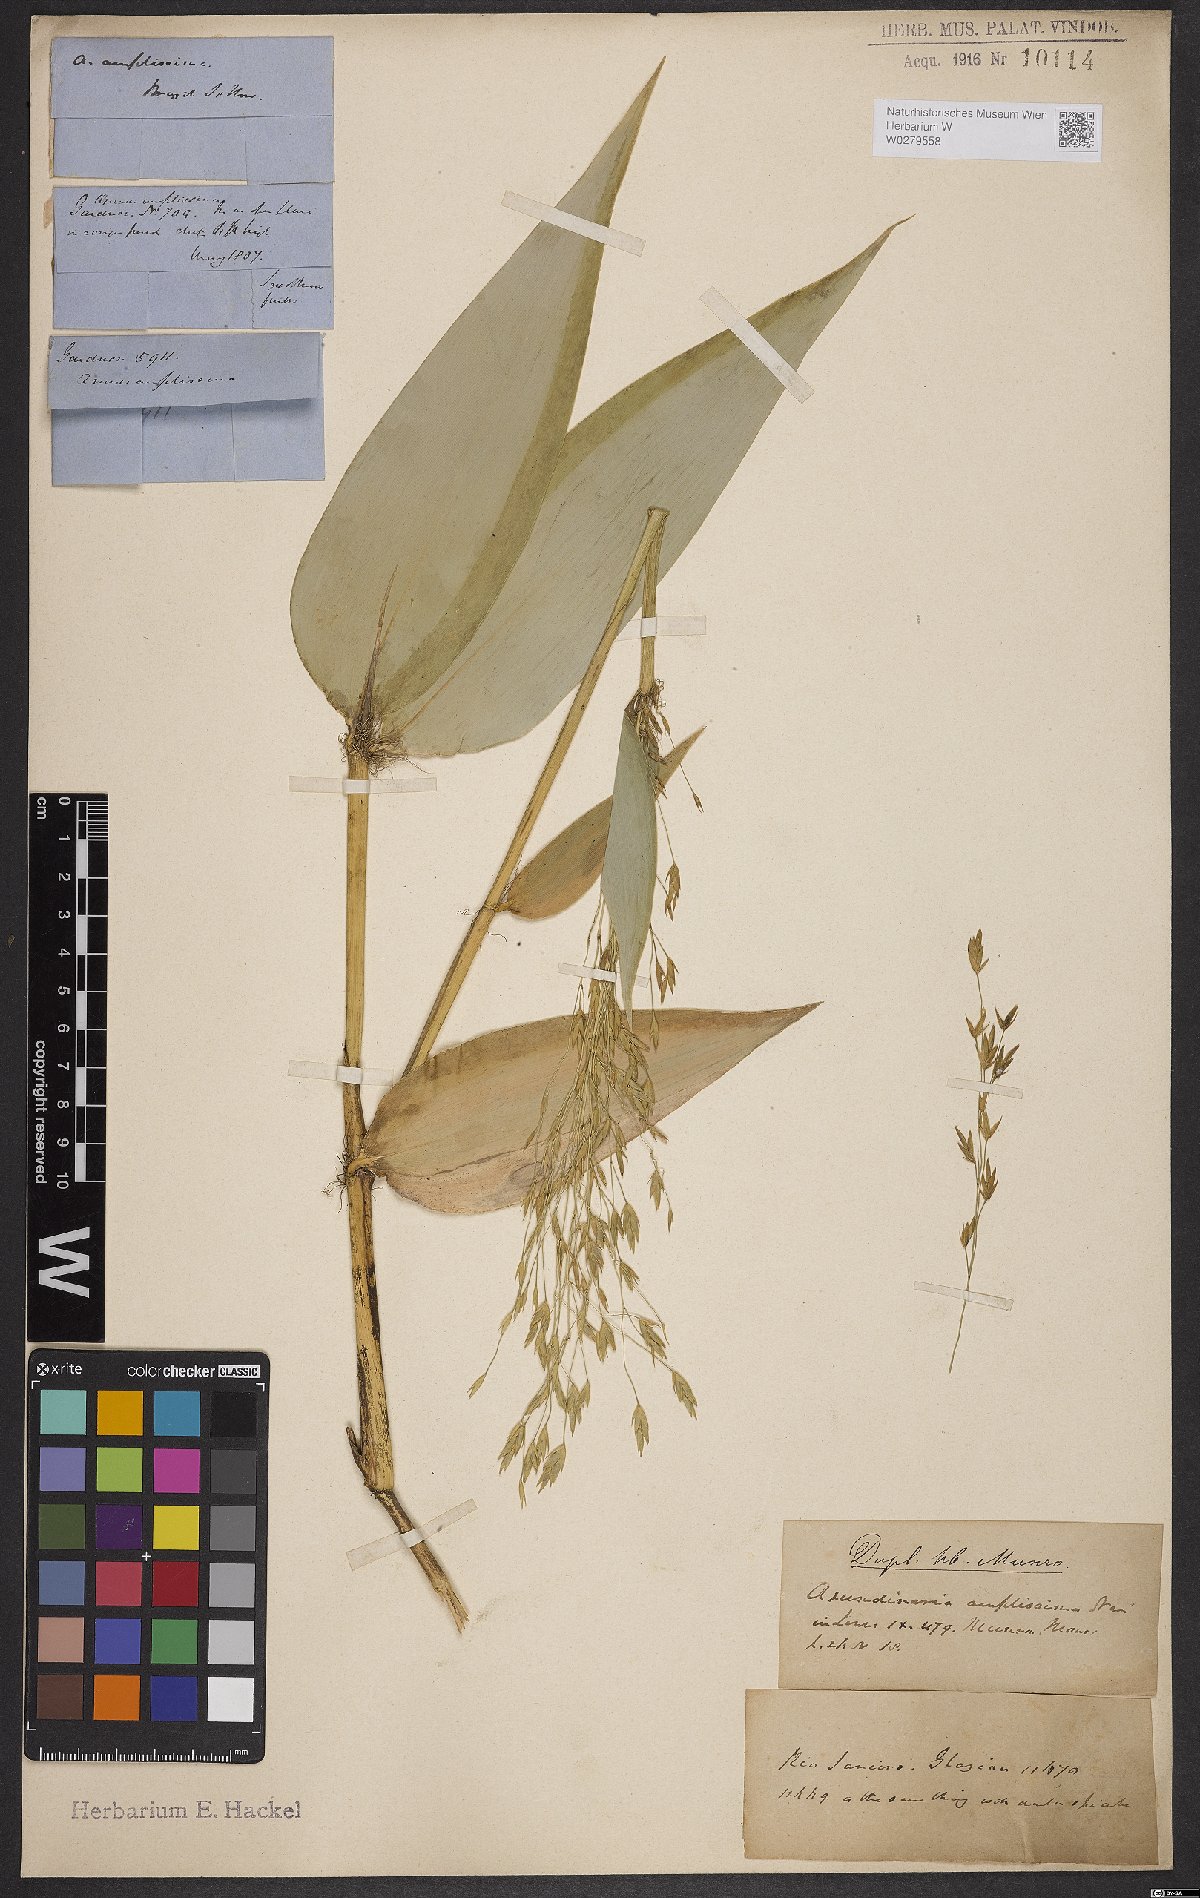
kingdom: Plantae
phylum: Tracheophyta
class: Liliopsida
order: Poales
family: Poaceae
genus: Aulonemia
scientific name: Aulonemia amplissima
